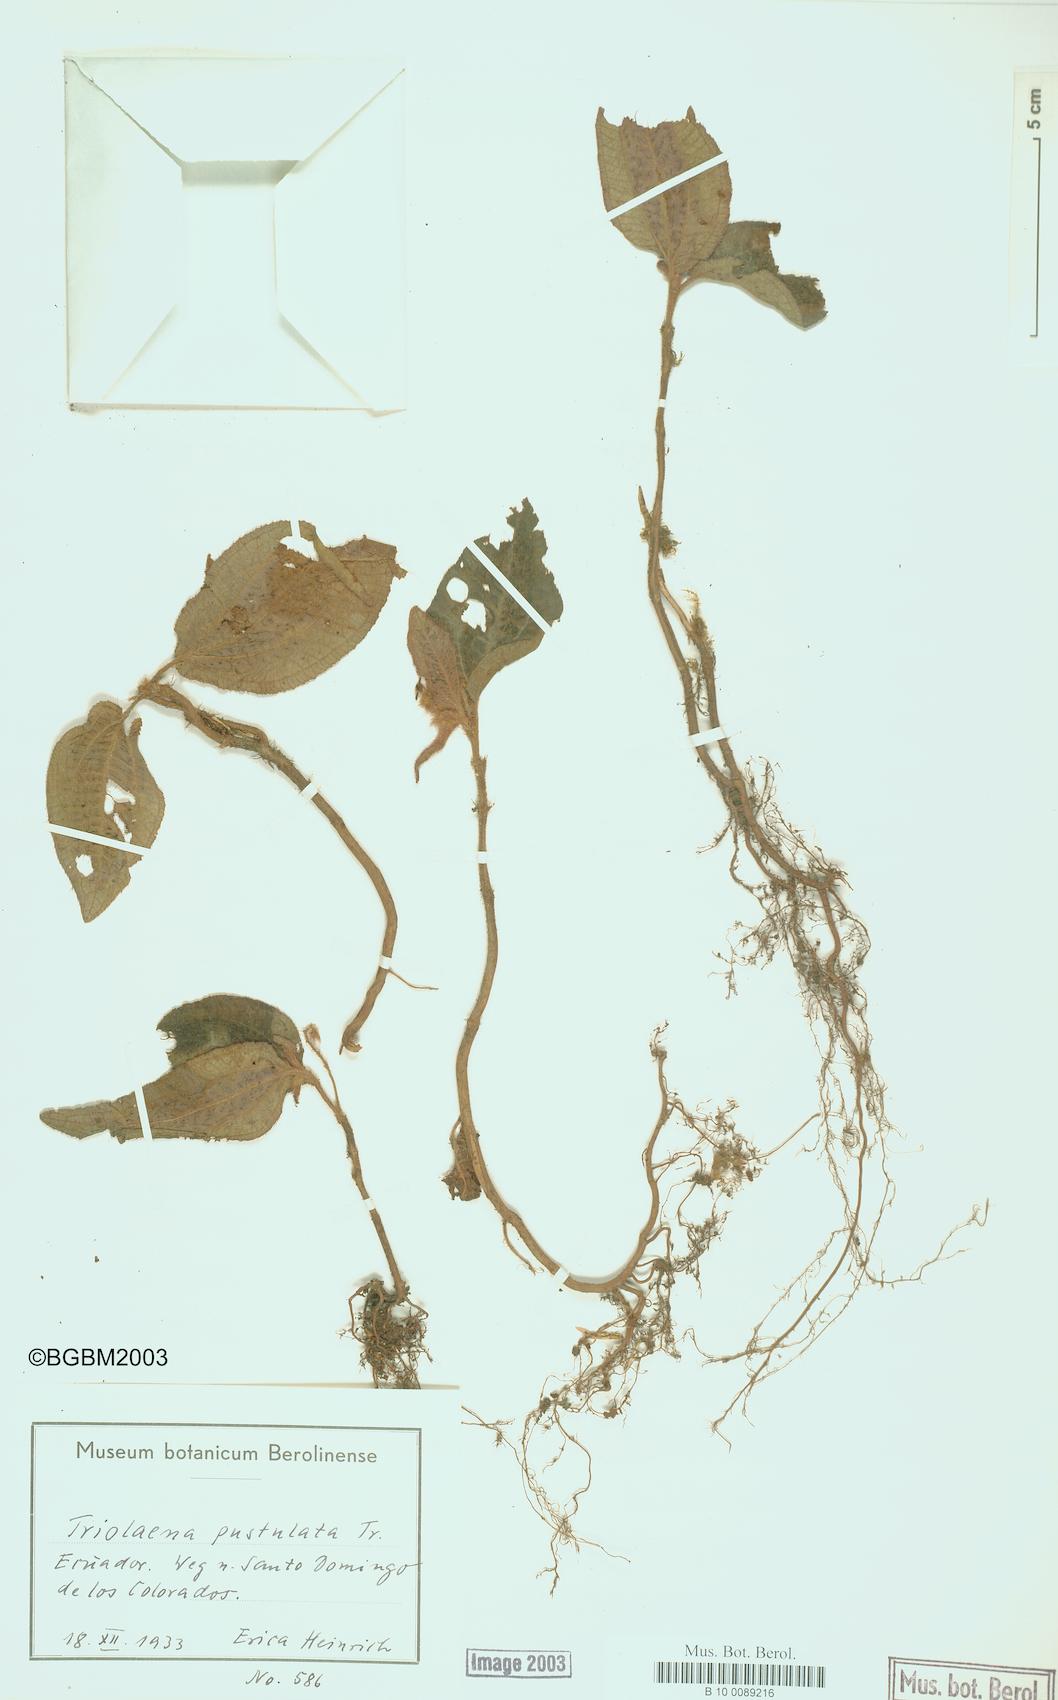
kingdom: Plantae
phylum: Tracheophyta
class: Magnoliopsida
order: Myrtales
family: Melastomataceae
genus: Triolena
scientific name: Triolena pustulata
